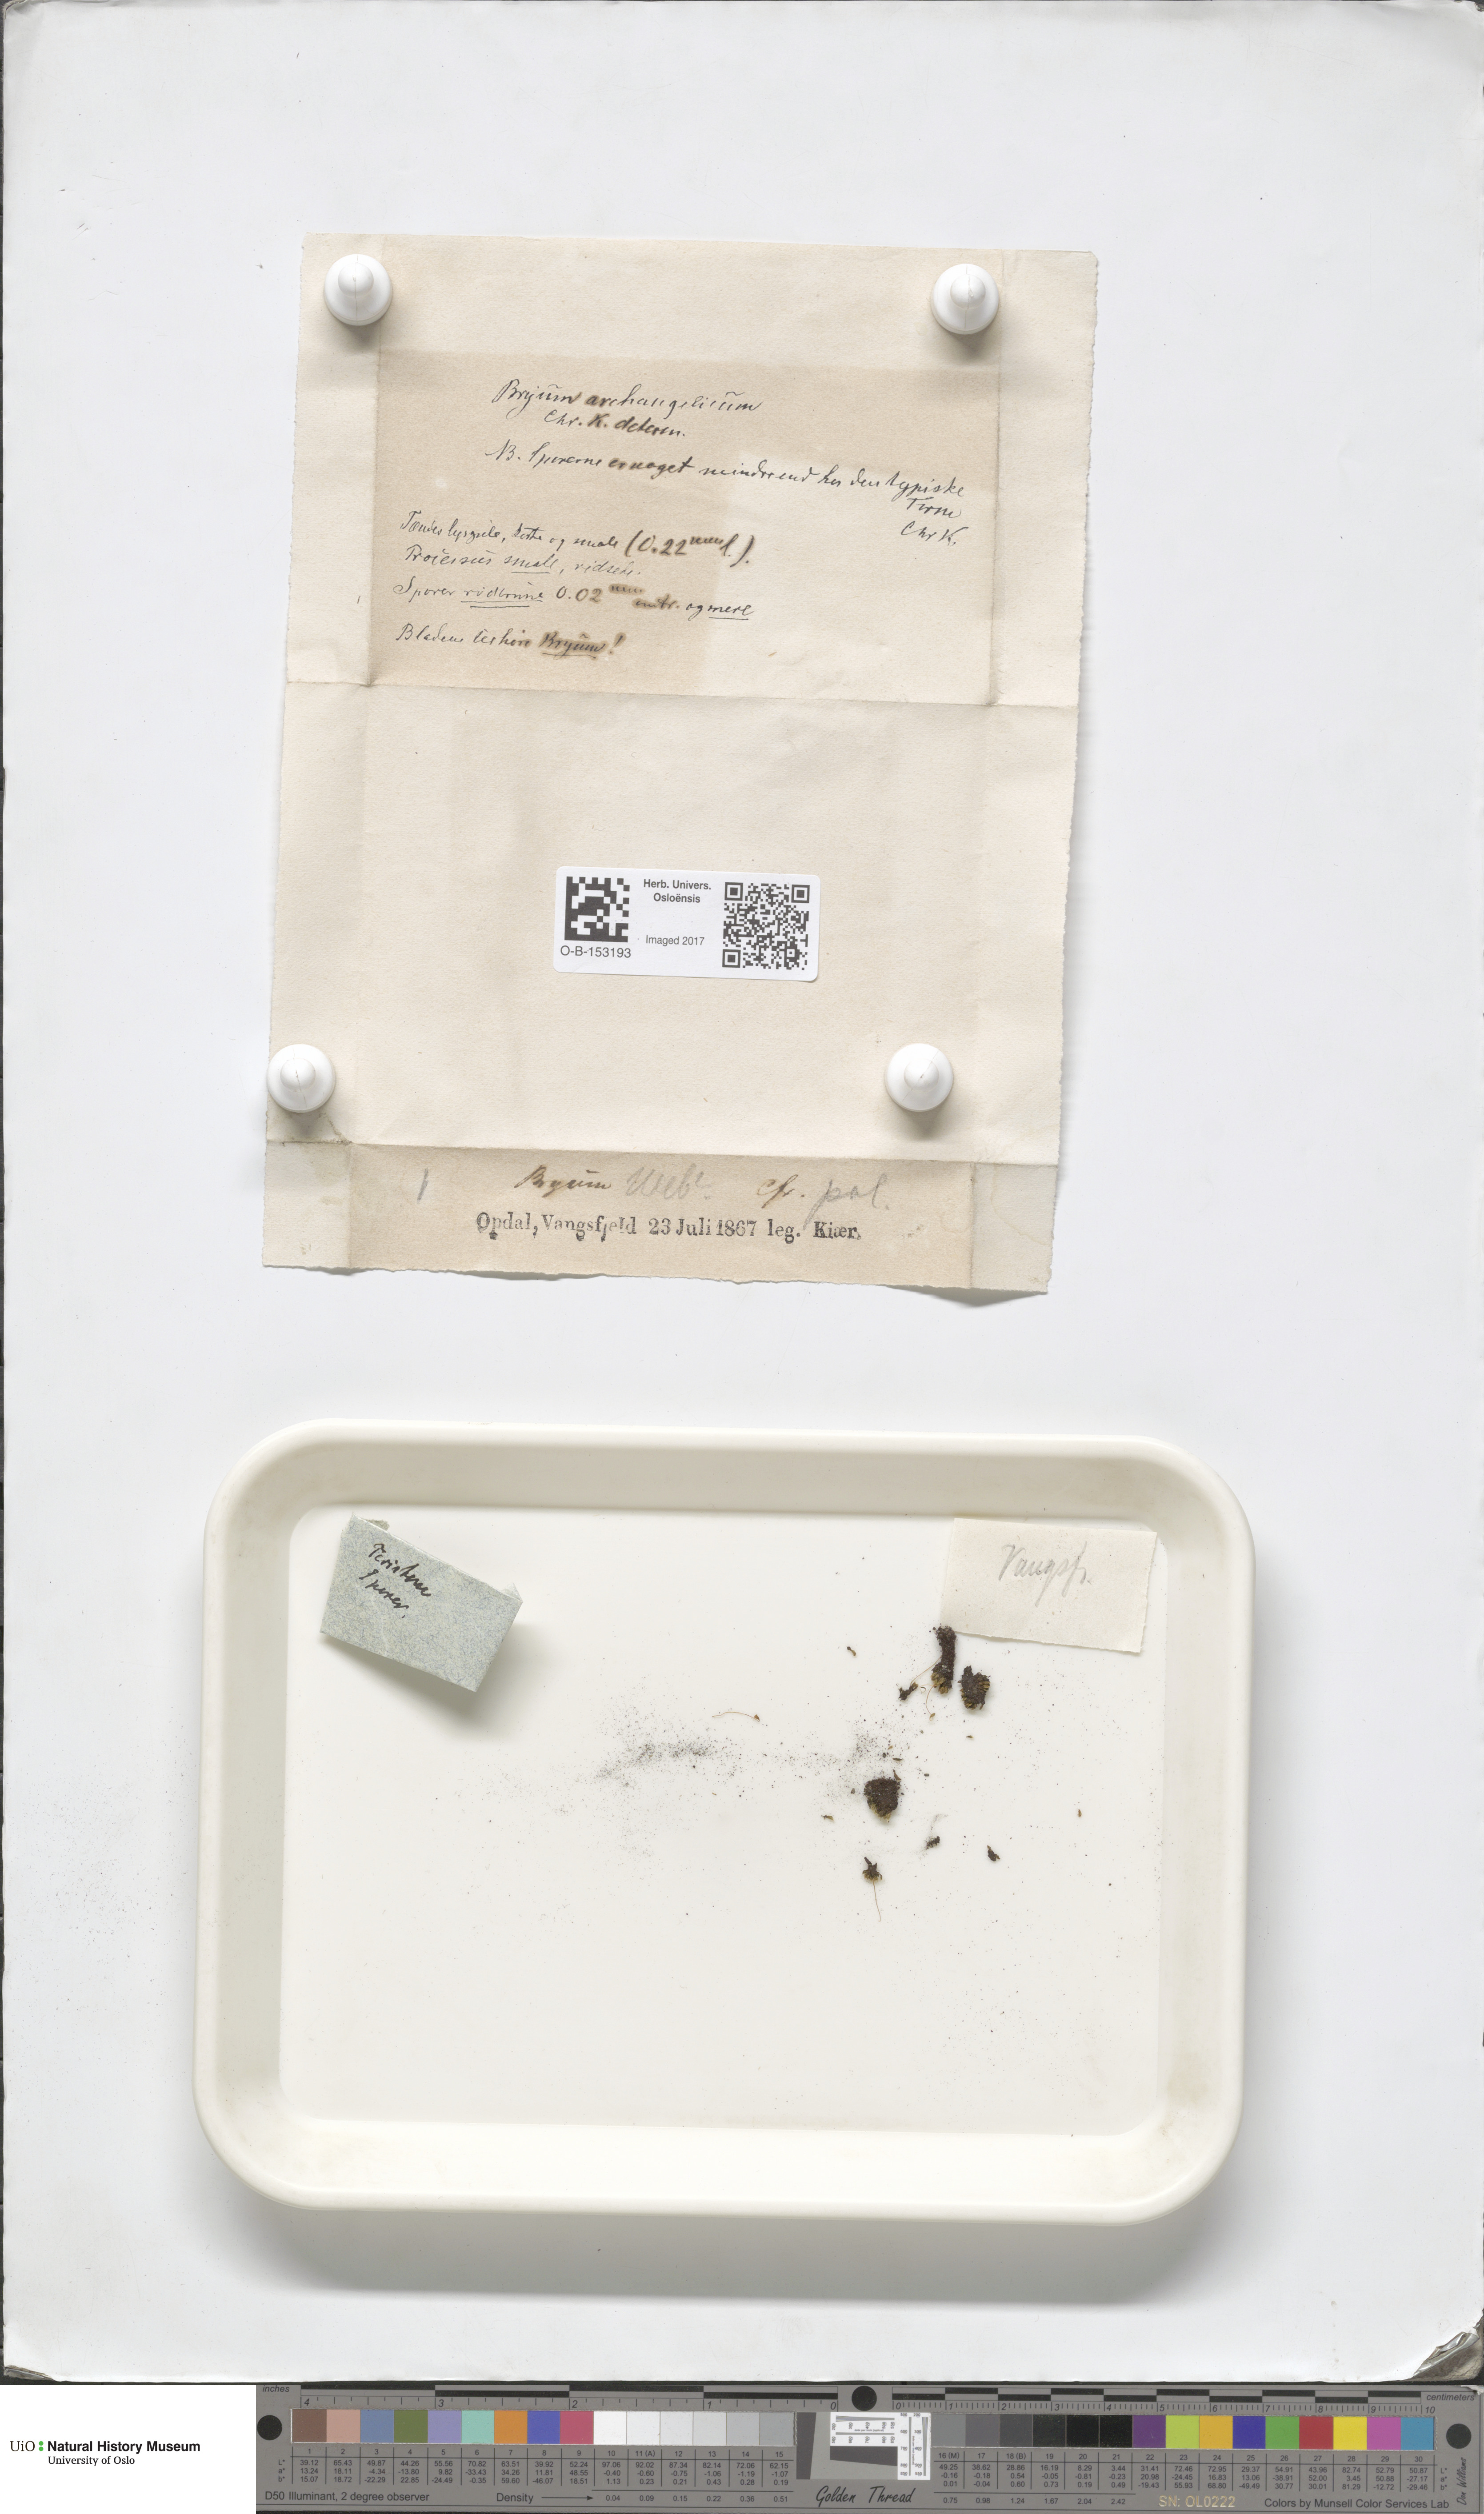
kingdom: Plantae
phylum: Bryophyta
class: Bryopsida
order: Bryales
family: Bryaceae
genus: Ptychostomum
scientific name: Ptychostomum inclinatum
